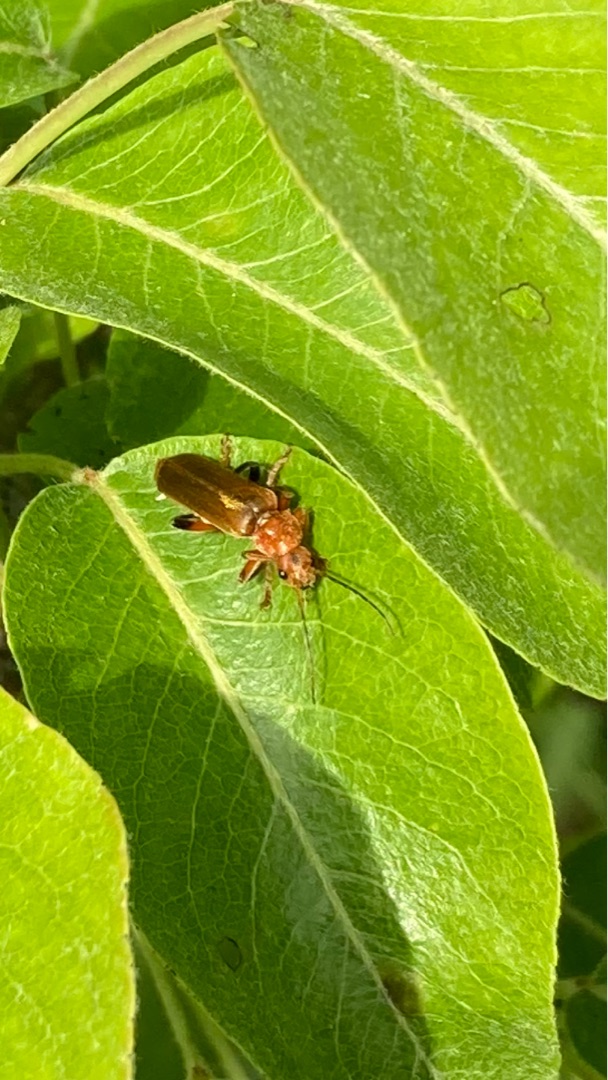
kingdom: Animalia
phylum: Arthropoda
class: Insecta
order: Coleoptera
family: Cantharidae
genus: Cantharis
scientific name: Cantharis livida
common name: Gul blødvinge
